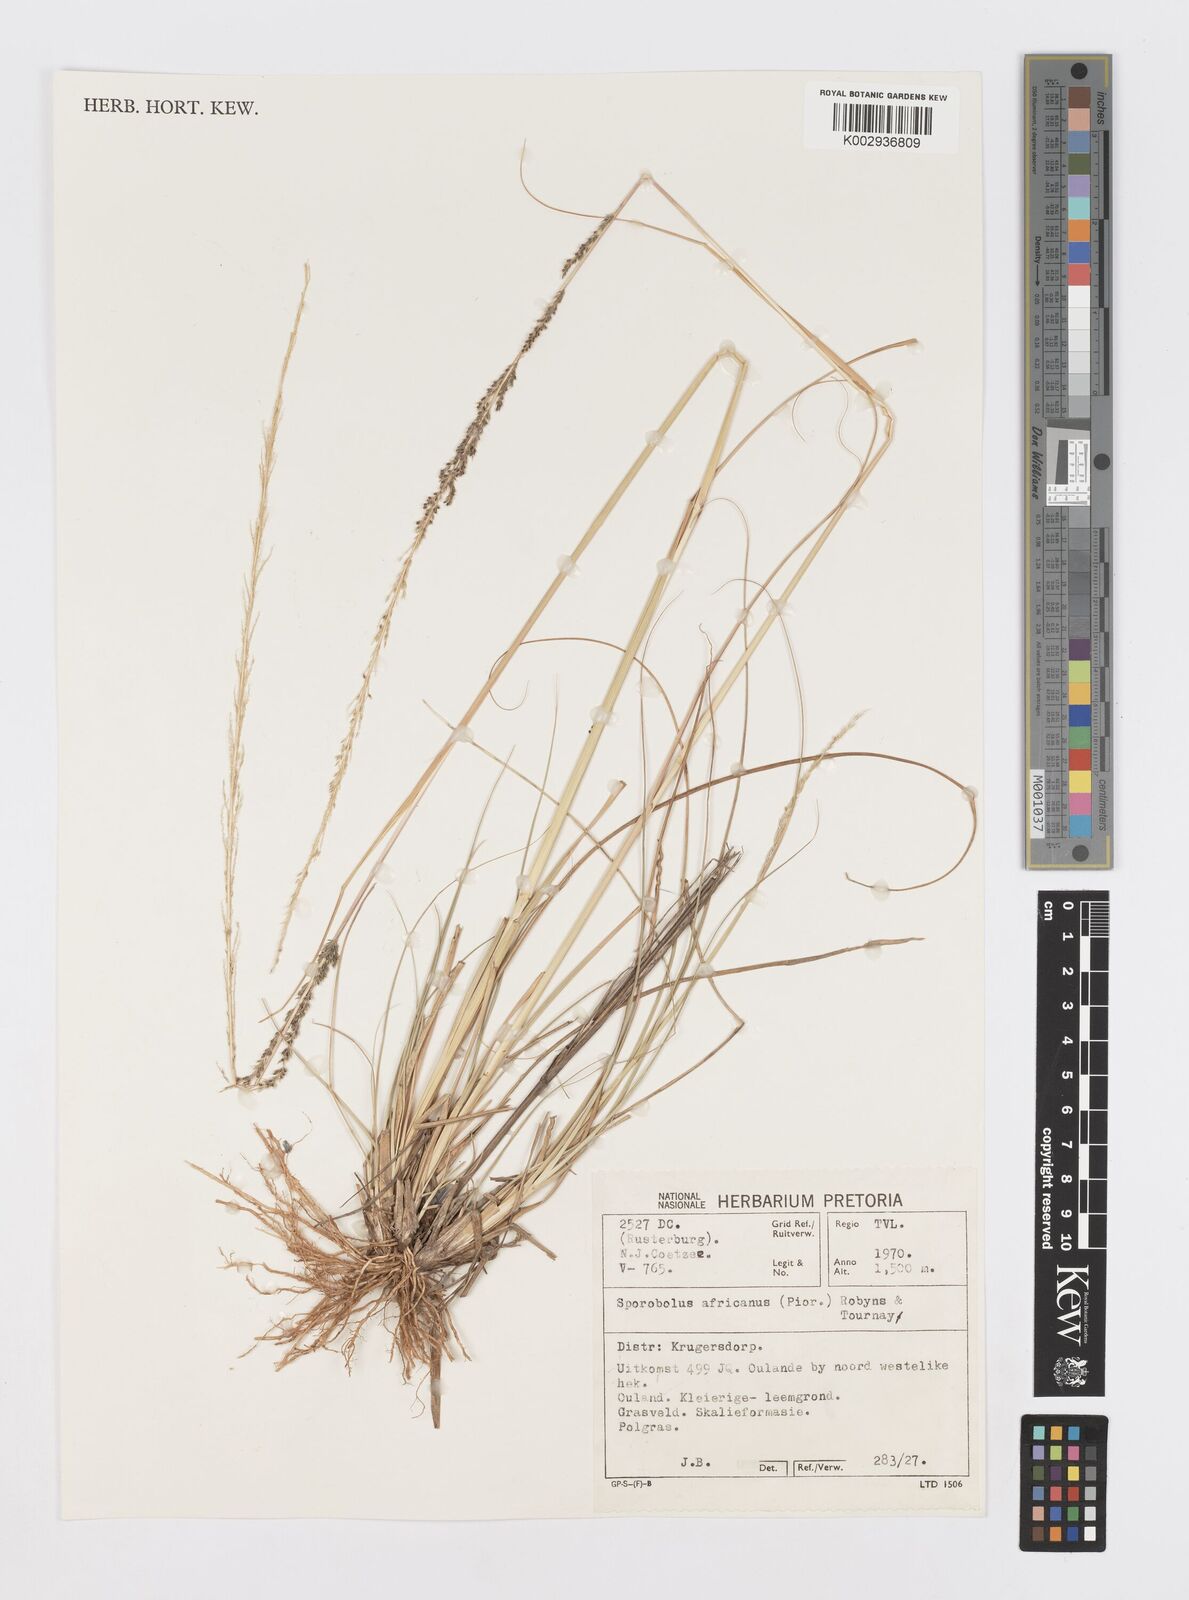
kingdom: Plantae
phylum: Tracheophyta
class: Liliopsida
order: Poales
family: Poaceae
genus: Sporobolus
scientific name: Sporobolus africanus
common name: African dropseed
